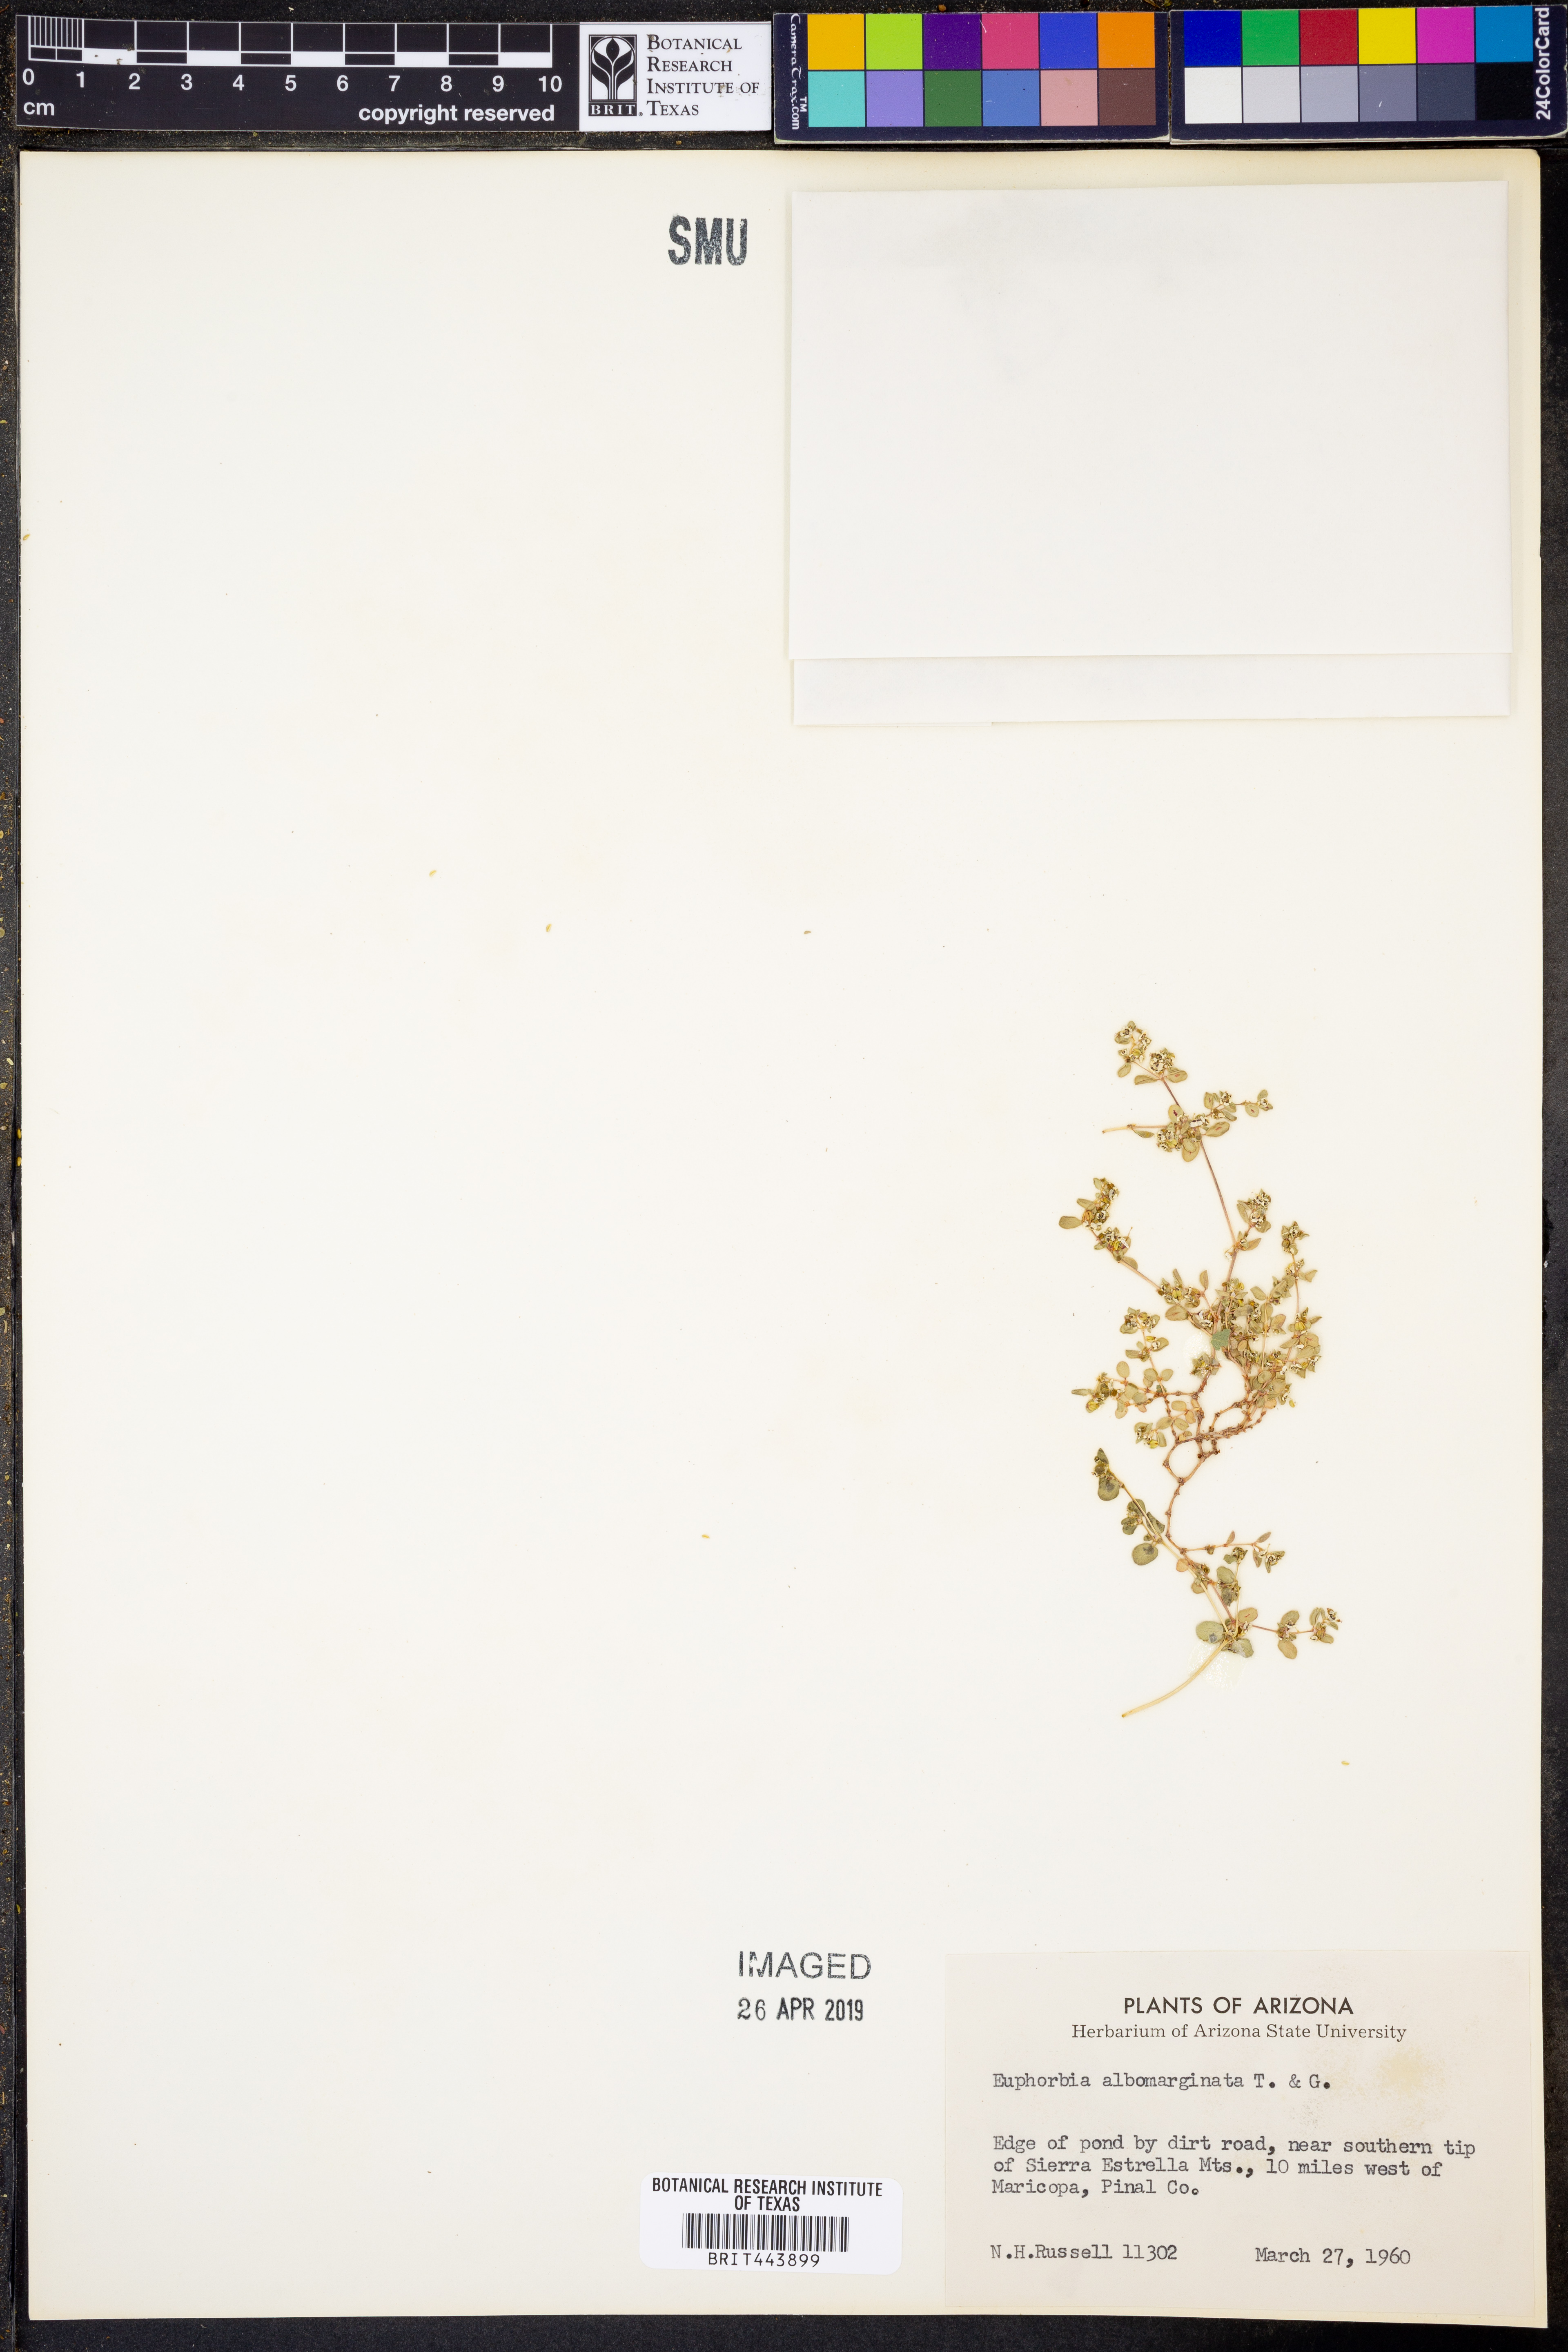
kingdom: Plantae
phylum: Tracheophyta
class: Magnoliopsida
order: Malpighiales
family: Euphorbiaceae
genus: Euphorbia
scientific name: Euphorbia albomarginata
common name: Whitemargin sandmat
